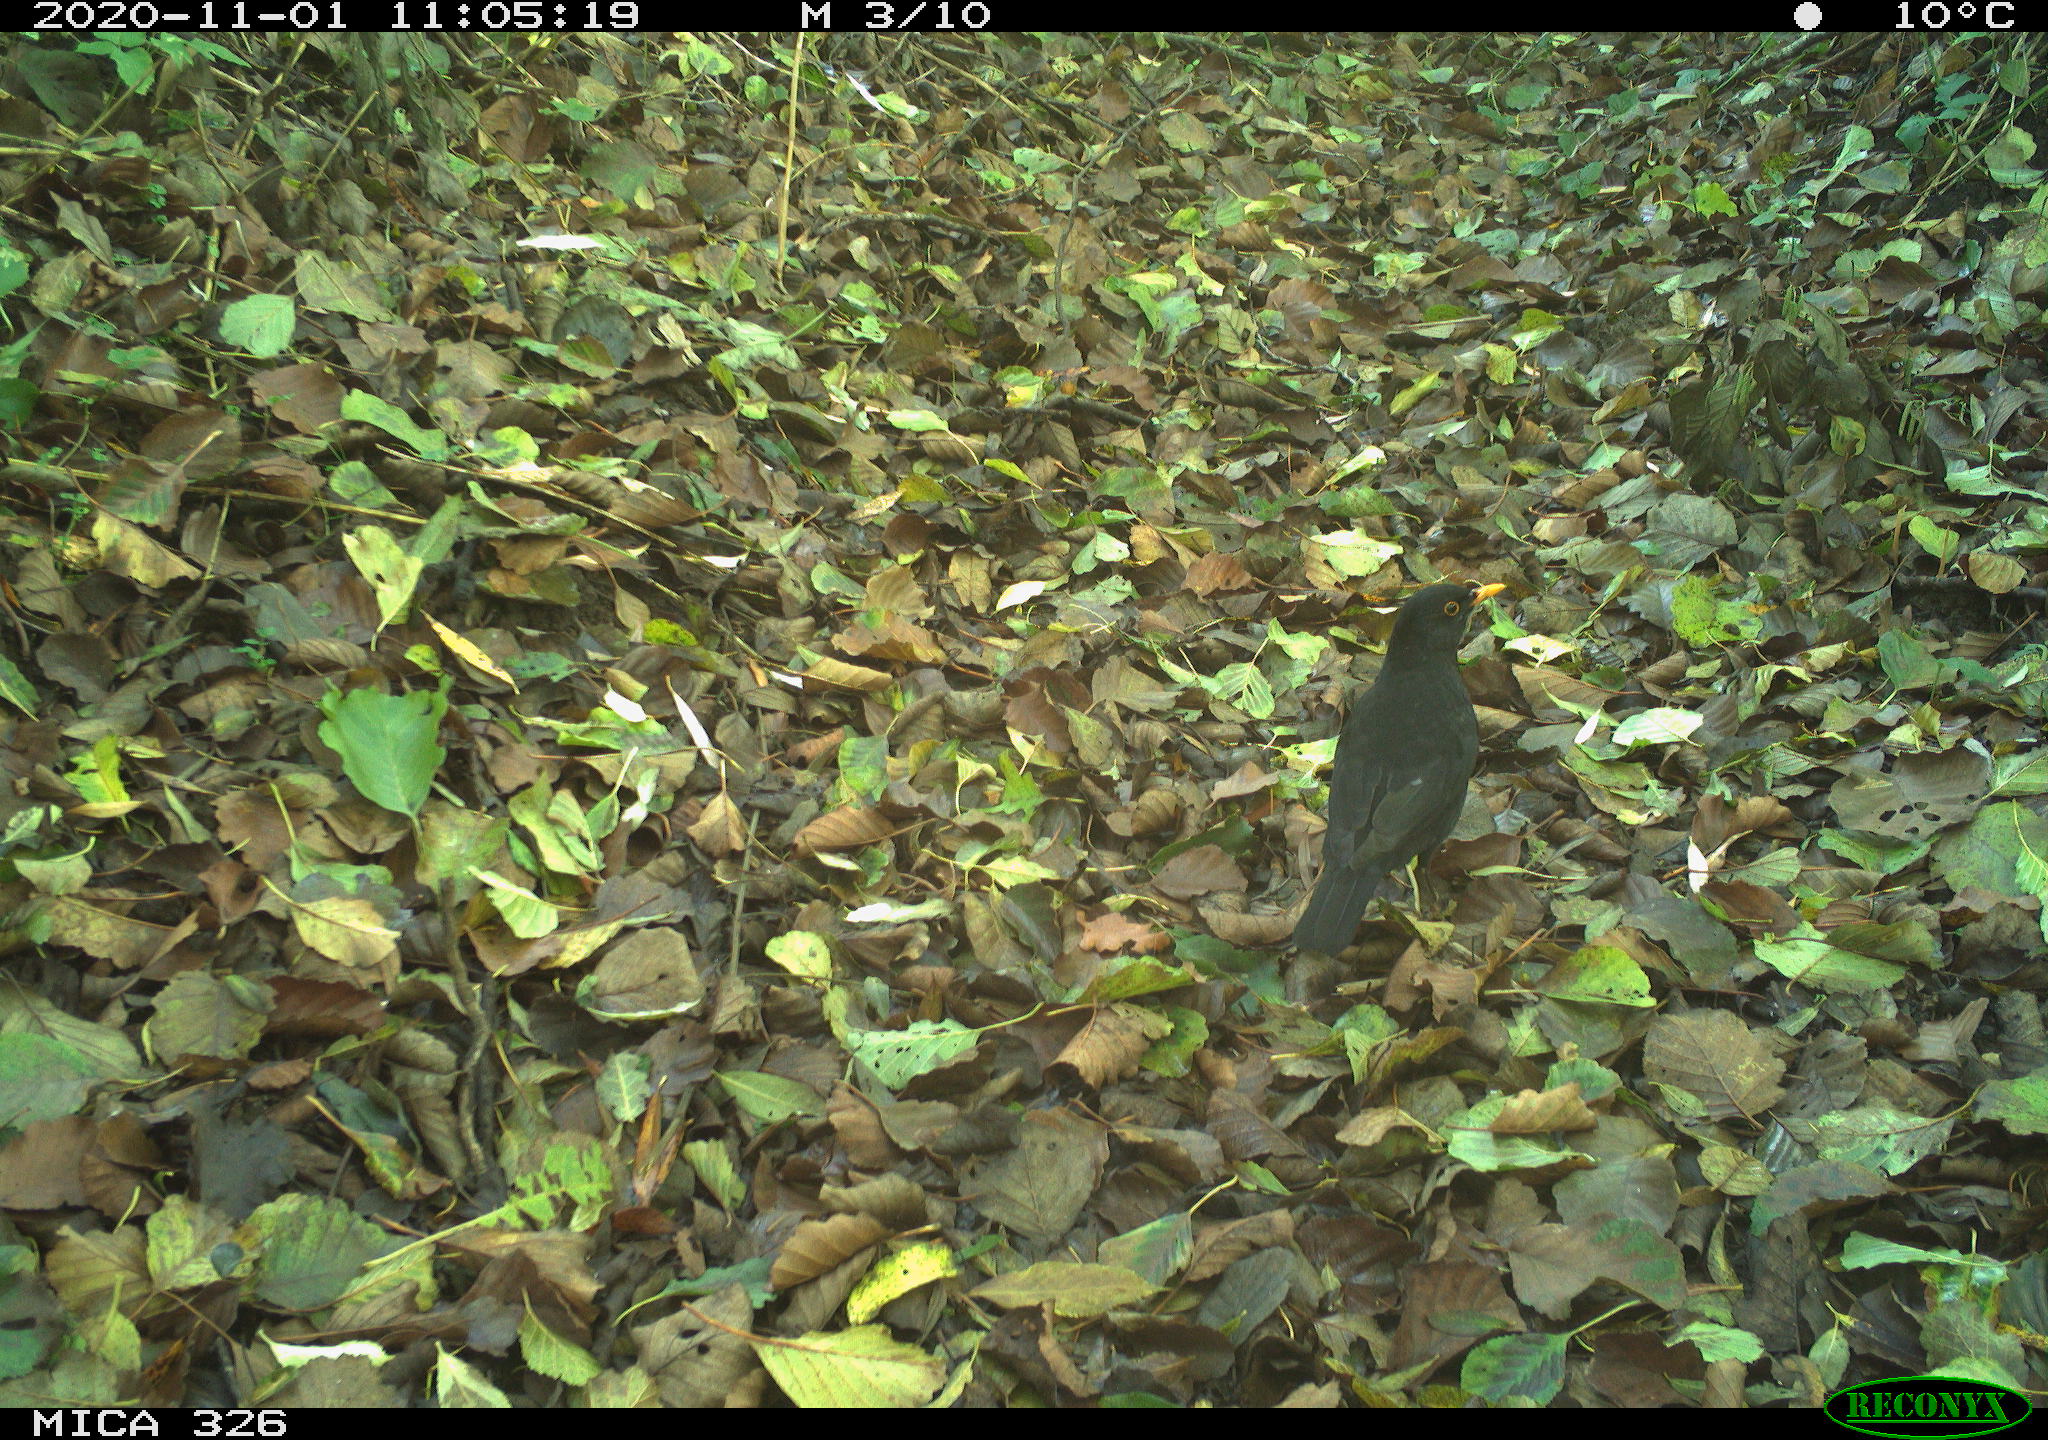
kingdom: Animalia
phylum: Chordata
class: Aves
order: Passeriformes
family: Turdidae
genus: Turdus
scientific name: Turdus merula
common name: Common blackbird
